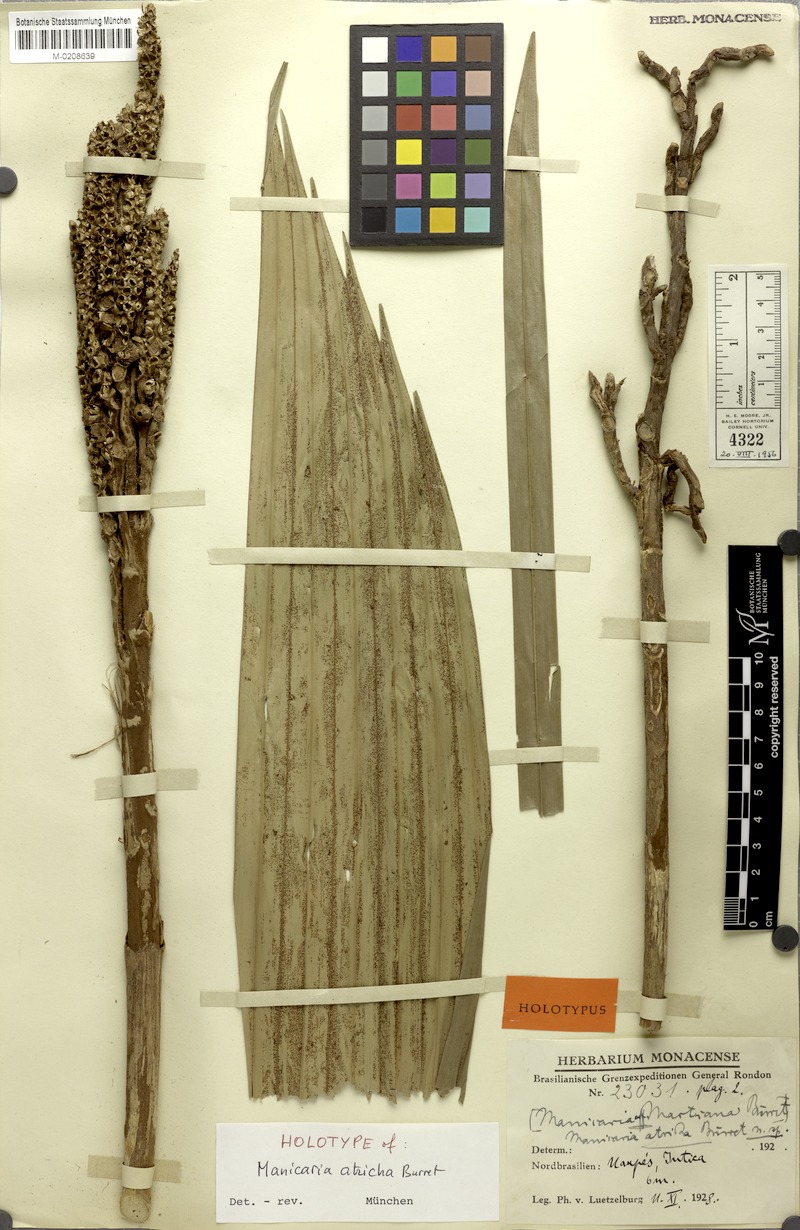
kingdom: Plantae
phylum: Tracheophyta
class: Liliopsida
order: Arecales
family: Arecaceae
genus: Manicaria
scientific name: Manicaria saccifera
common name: Sea coconut
